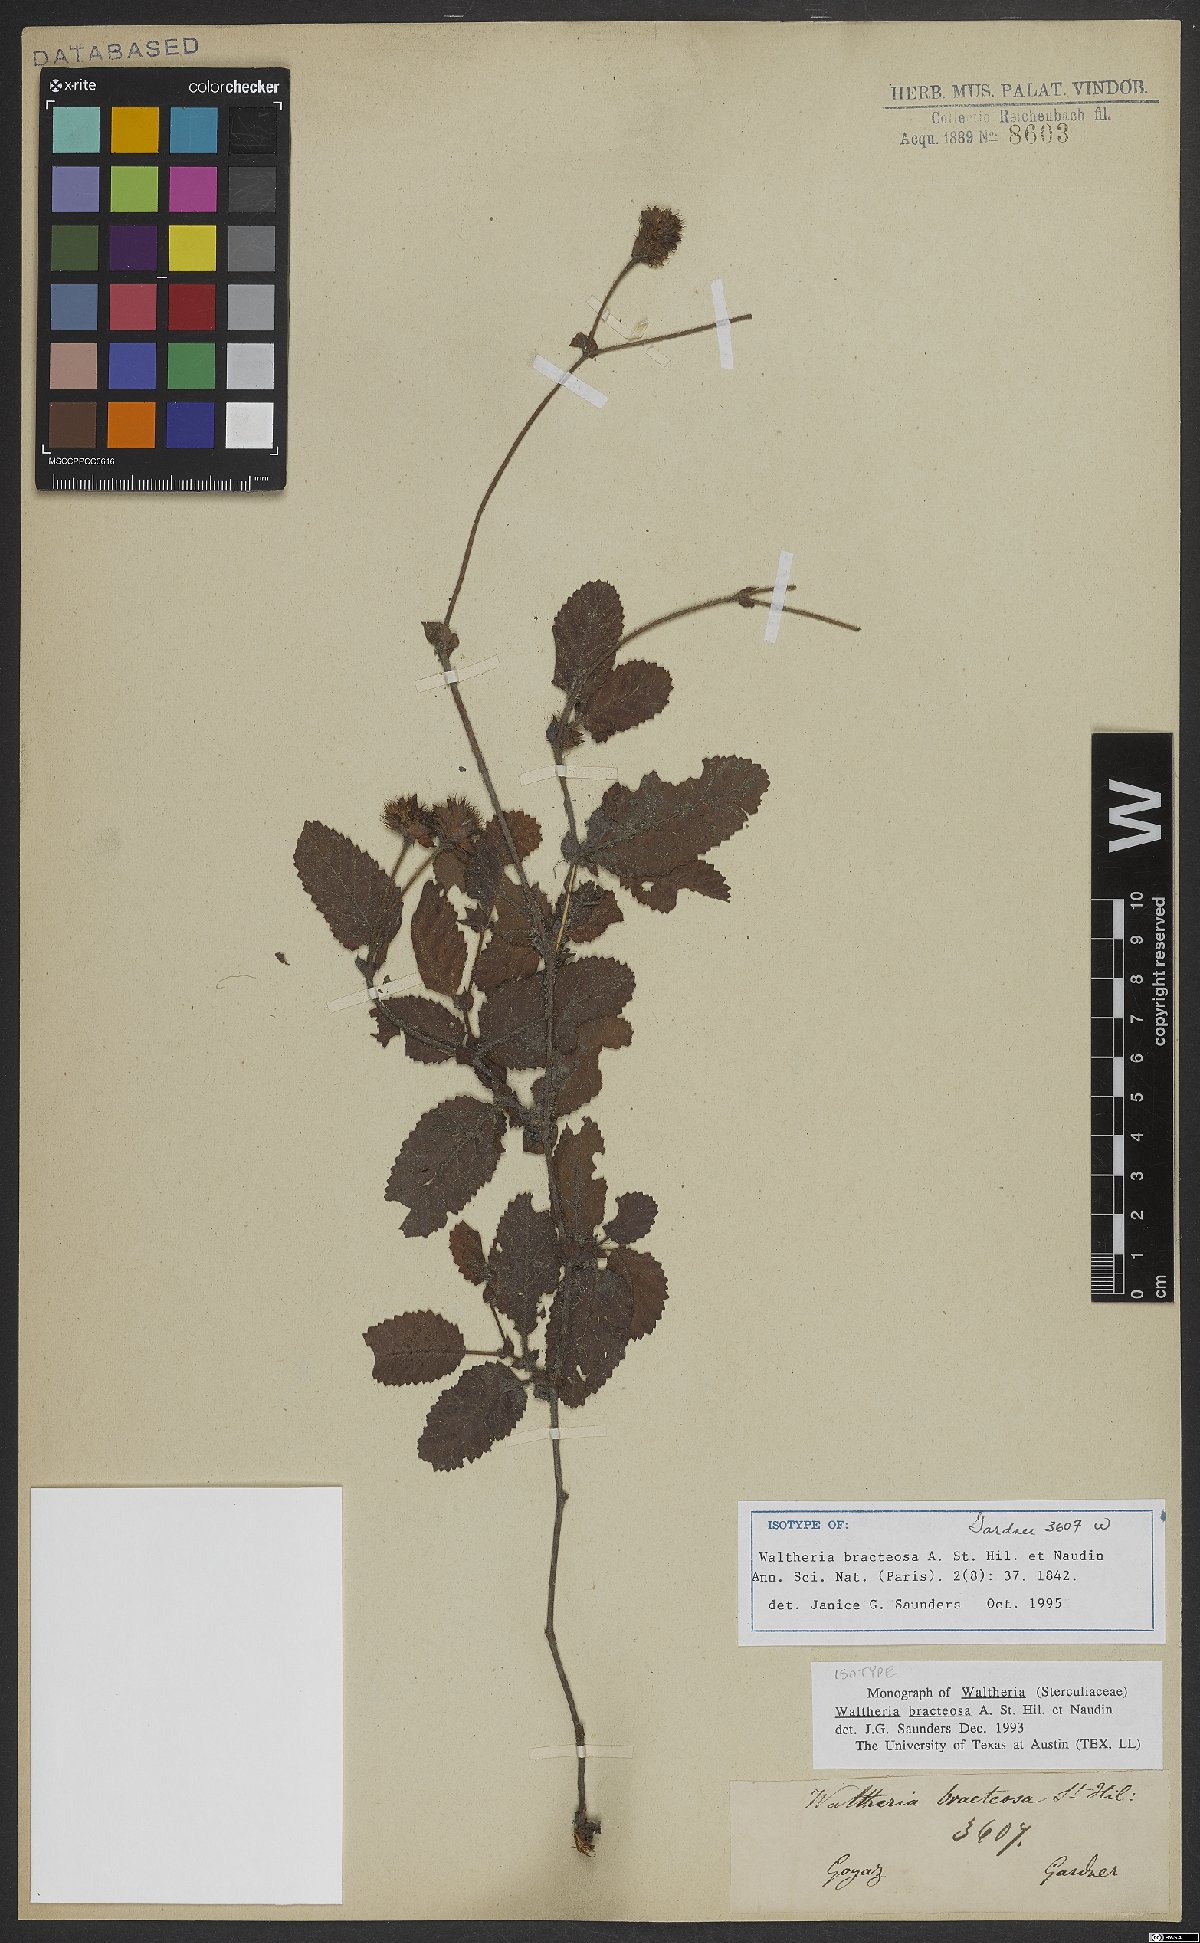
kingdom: Plantae
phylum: Tracheophyta
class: Magnoliopsida
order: Malvales
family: Malvaceae
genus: Waltheria
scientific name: Waltheria bracteosa
